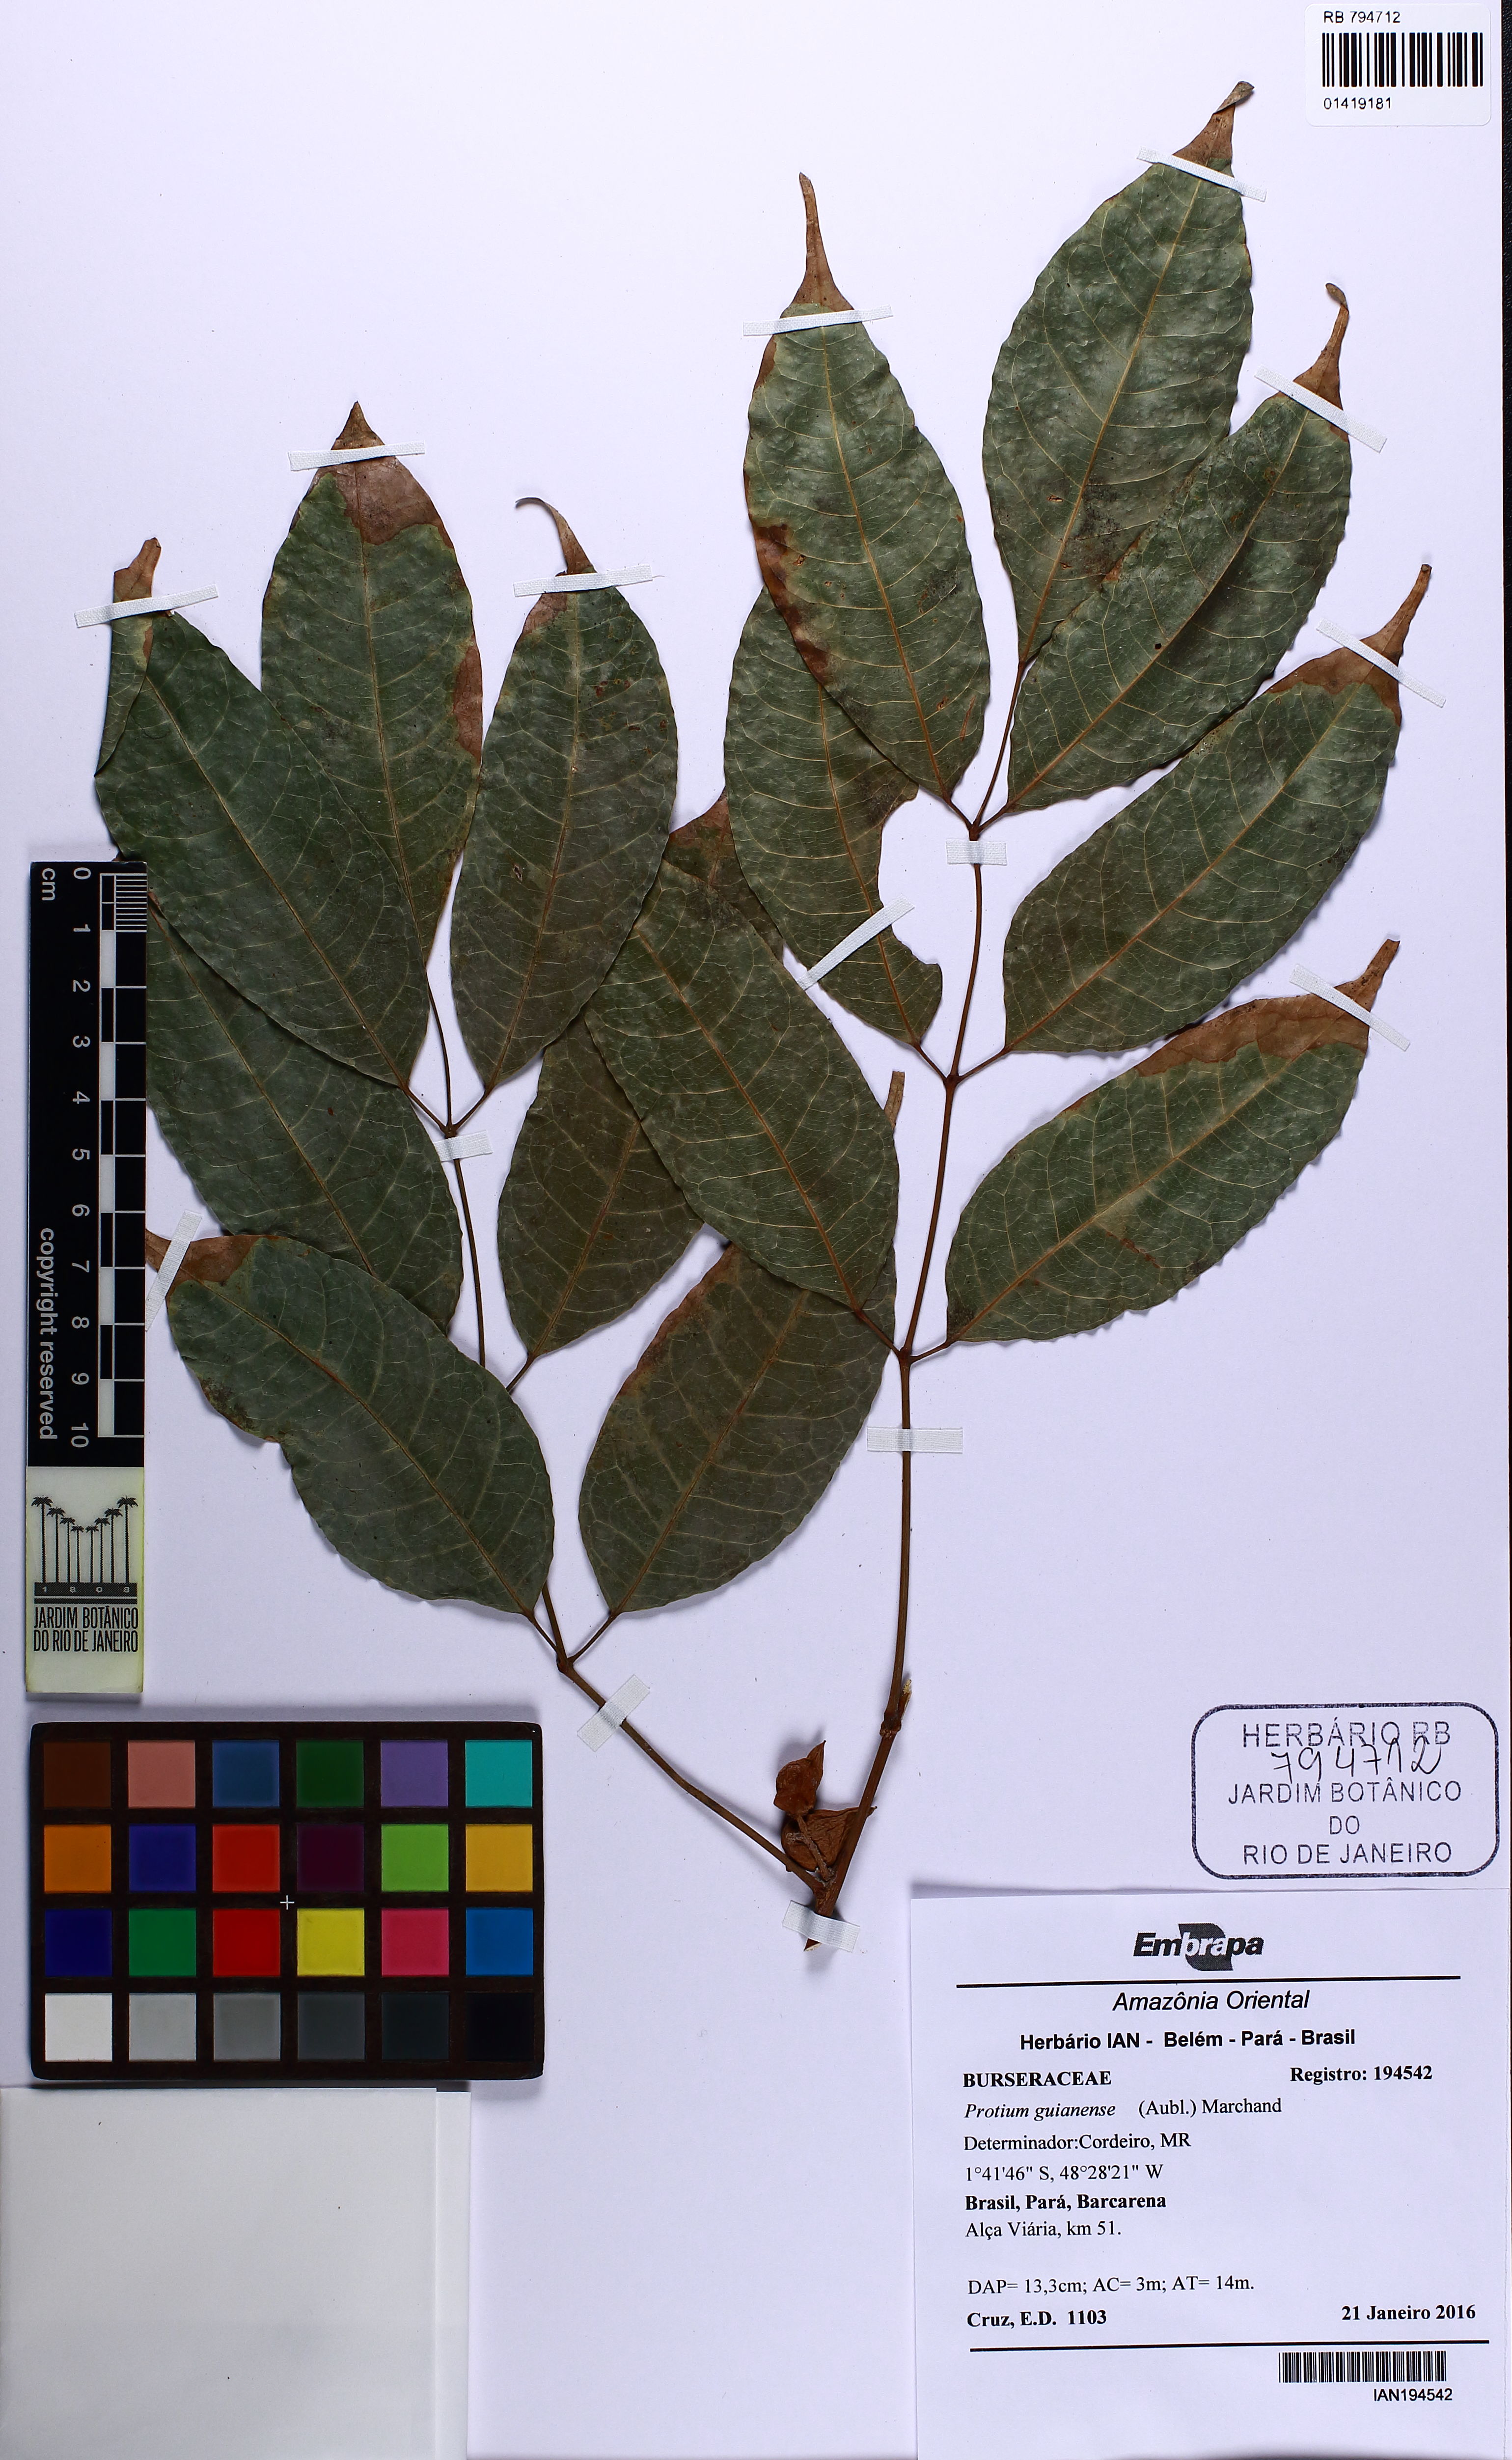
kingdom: Plantae
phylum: Tracheophyta
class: Magnoliopsida
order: Sapindales
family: Burseraceae
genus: Protium
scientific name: Protium guianense
